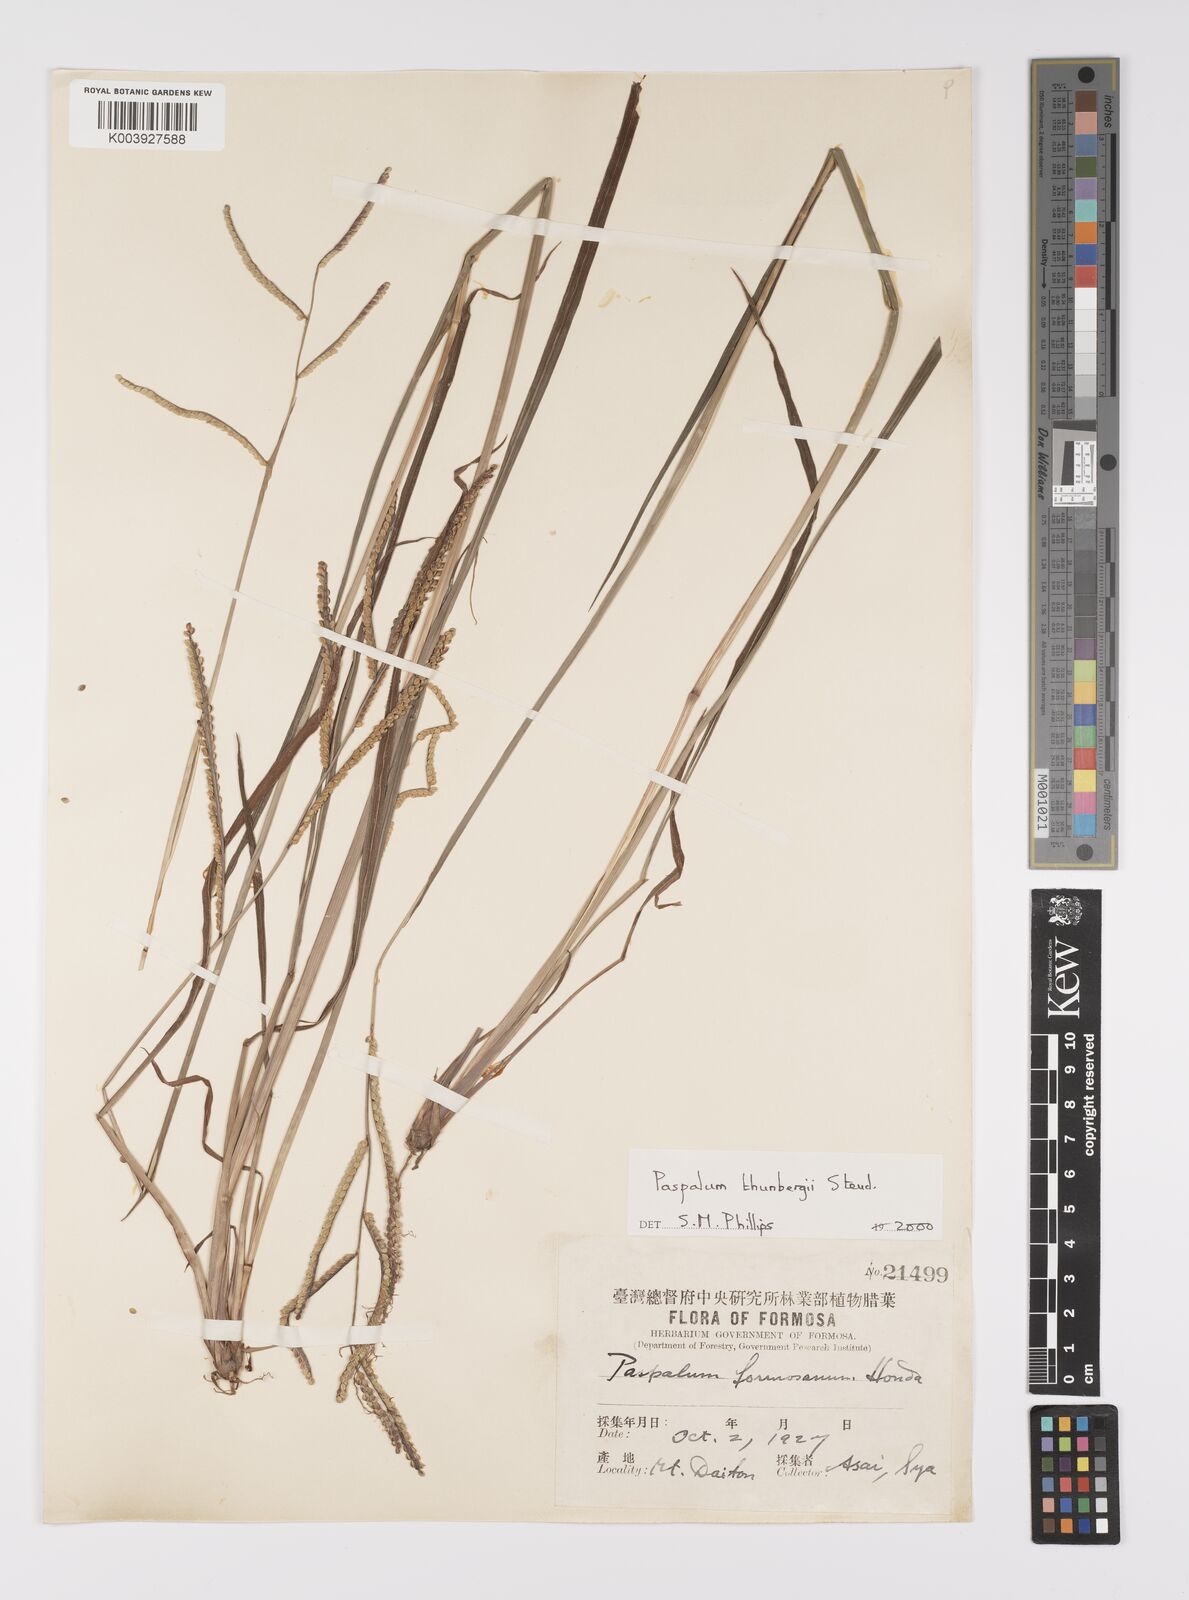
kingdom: Plantae
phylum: Tracheophyta
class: Liliopsida
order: Poales
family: Poaceae
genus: Paspalum
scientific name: Paspalum thunbergii
